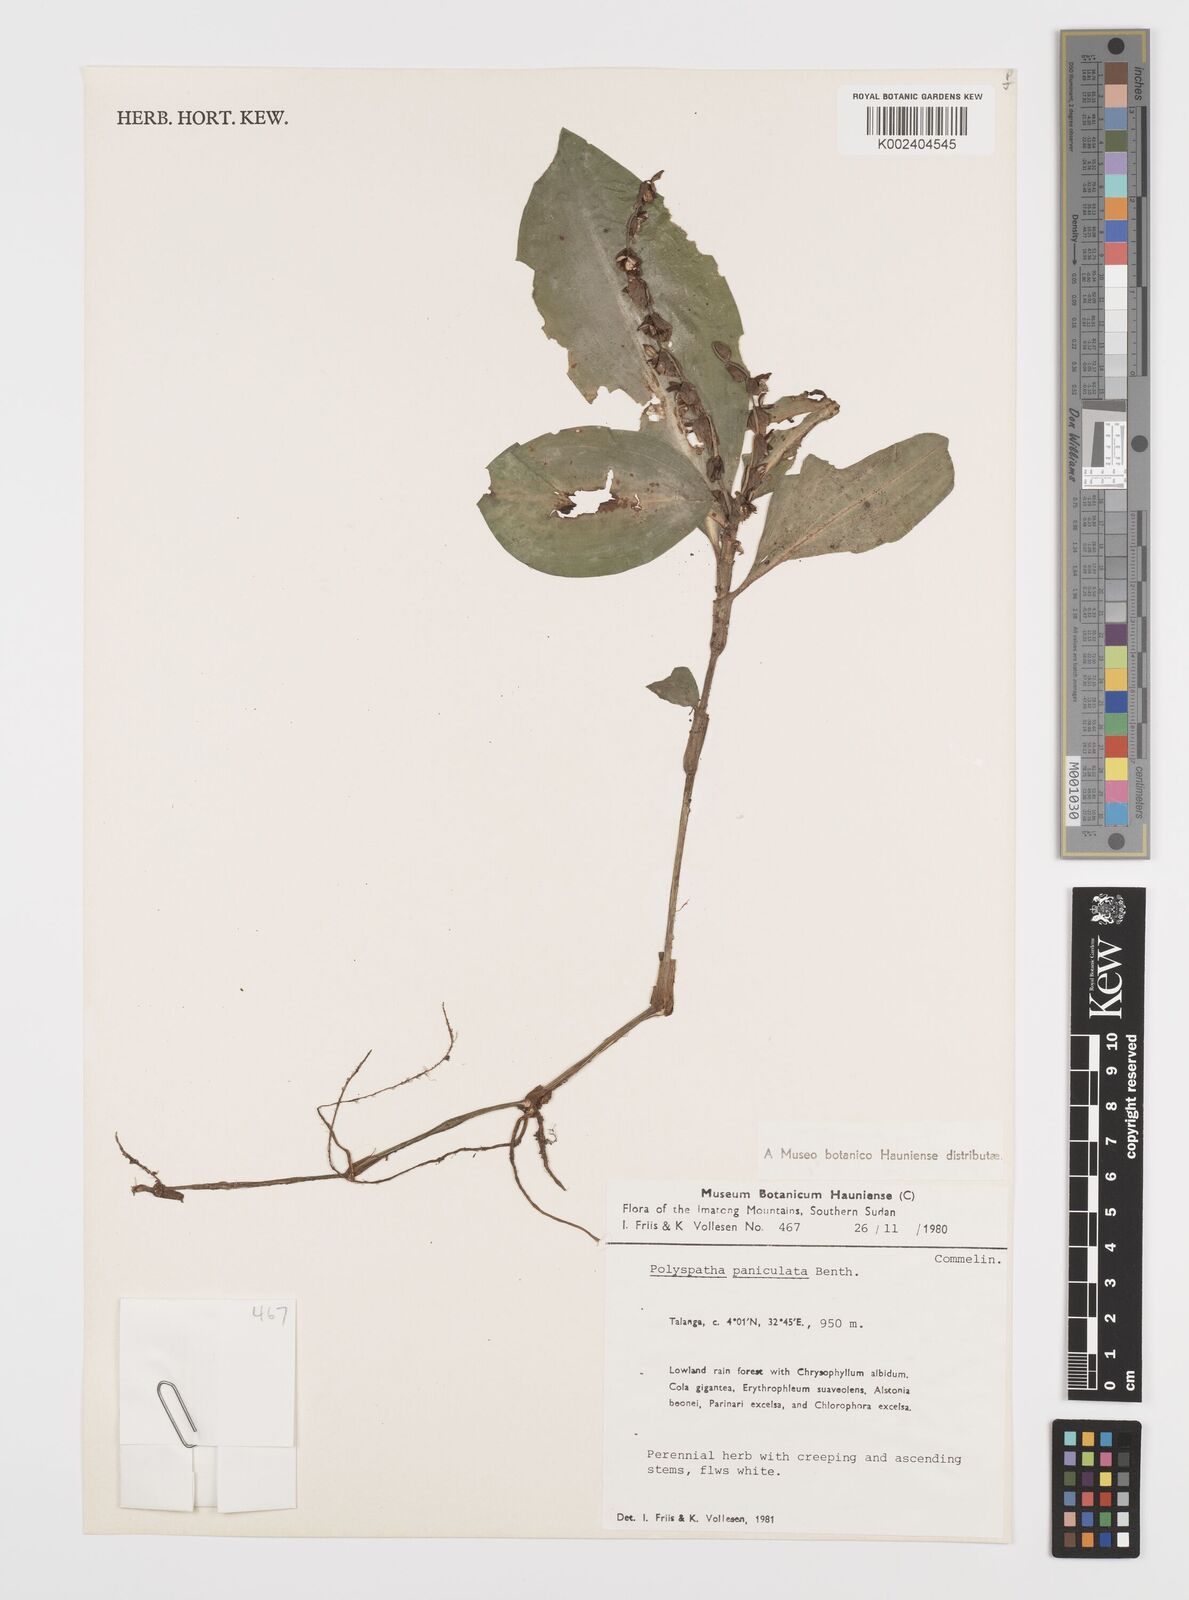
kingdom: Plantae
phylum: Tracheophyta
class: Liliopsida
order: Commelinales
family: Commelinaceae
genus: Polyspatha
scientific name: Polyspatha paniculata
